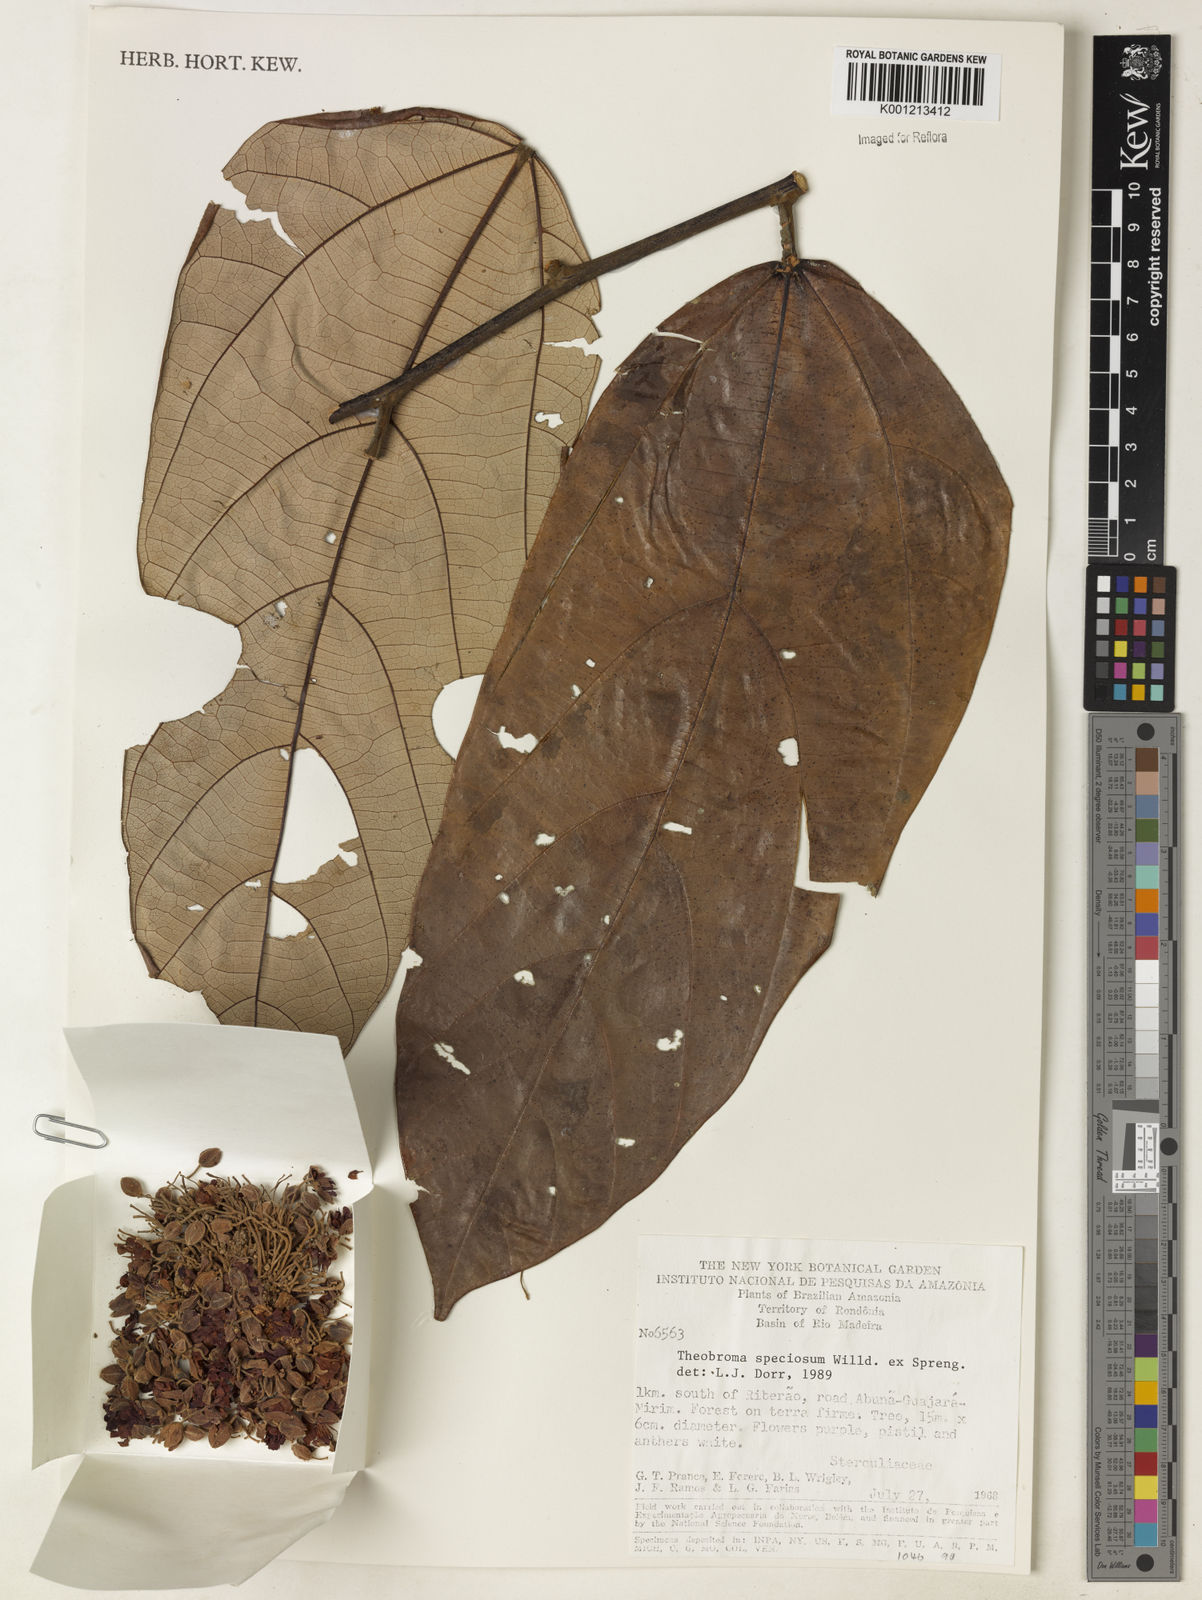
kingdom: Plantae
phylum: Tracheophyta
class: Magnoliopsida
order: Malvales
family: Malvaceae
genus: Theobroma
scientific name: Theobroma speciosum
